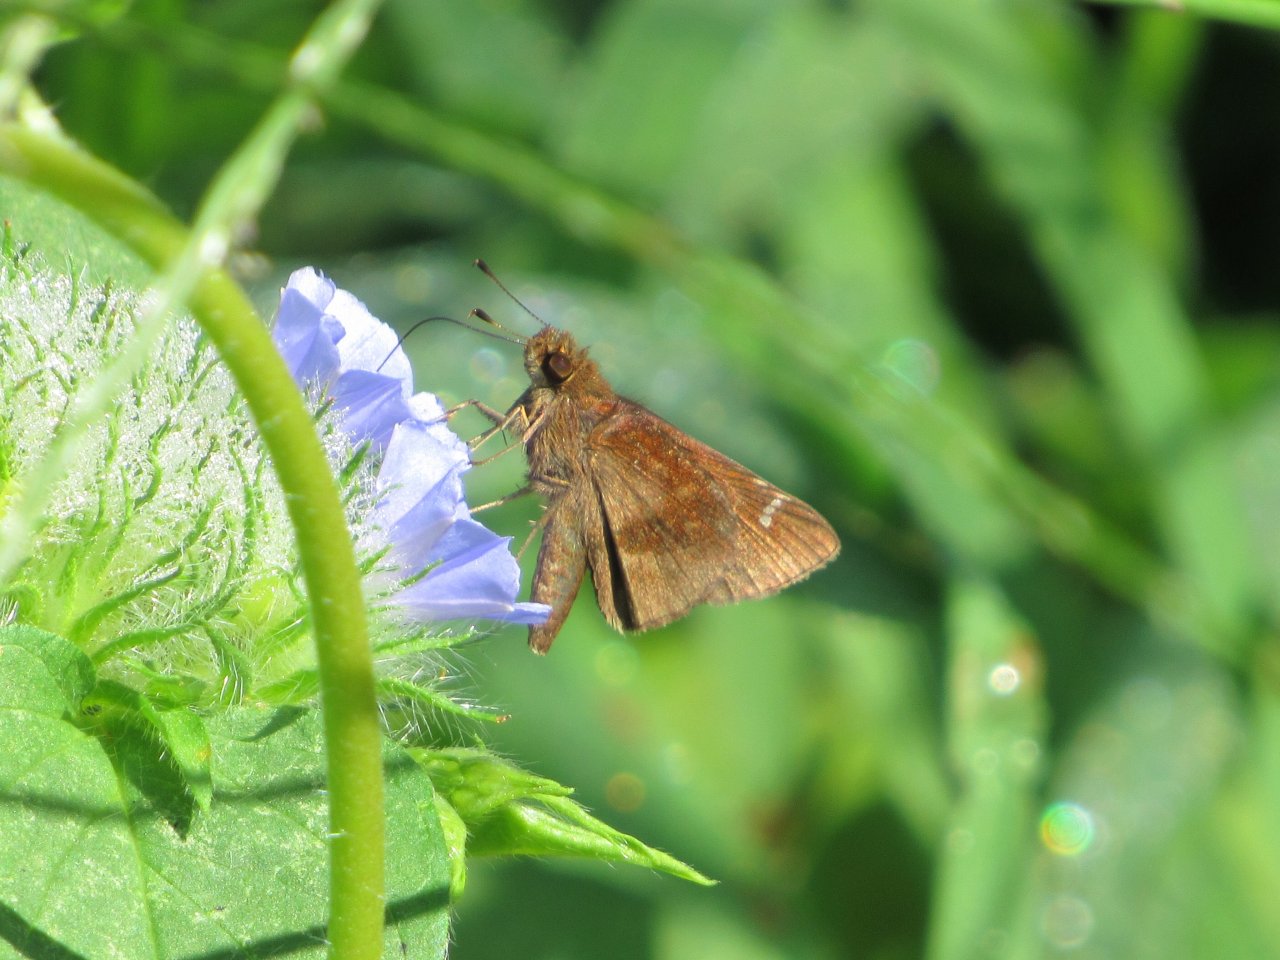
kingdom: Animalia
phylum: Arthropoda
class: Insecta
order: Lepidoptera
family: Hesperiidae
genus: Lerema
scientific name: Lerema accius
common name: Clouded Skipper
